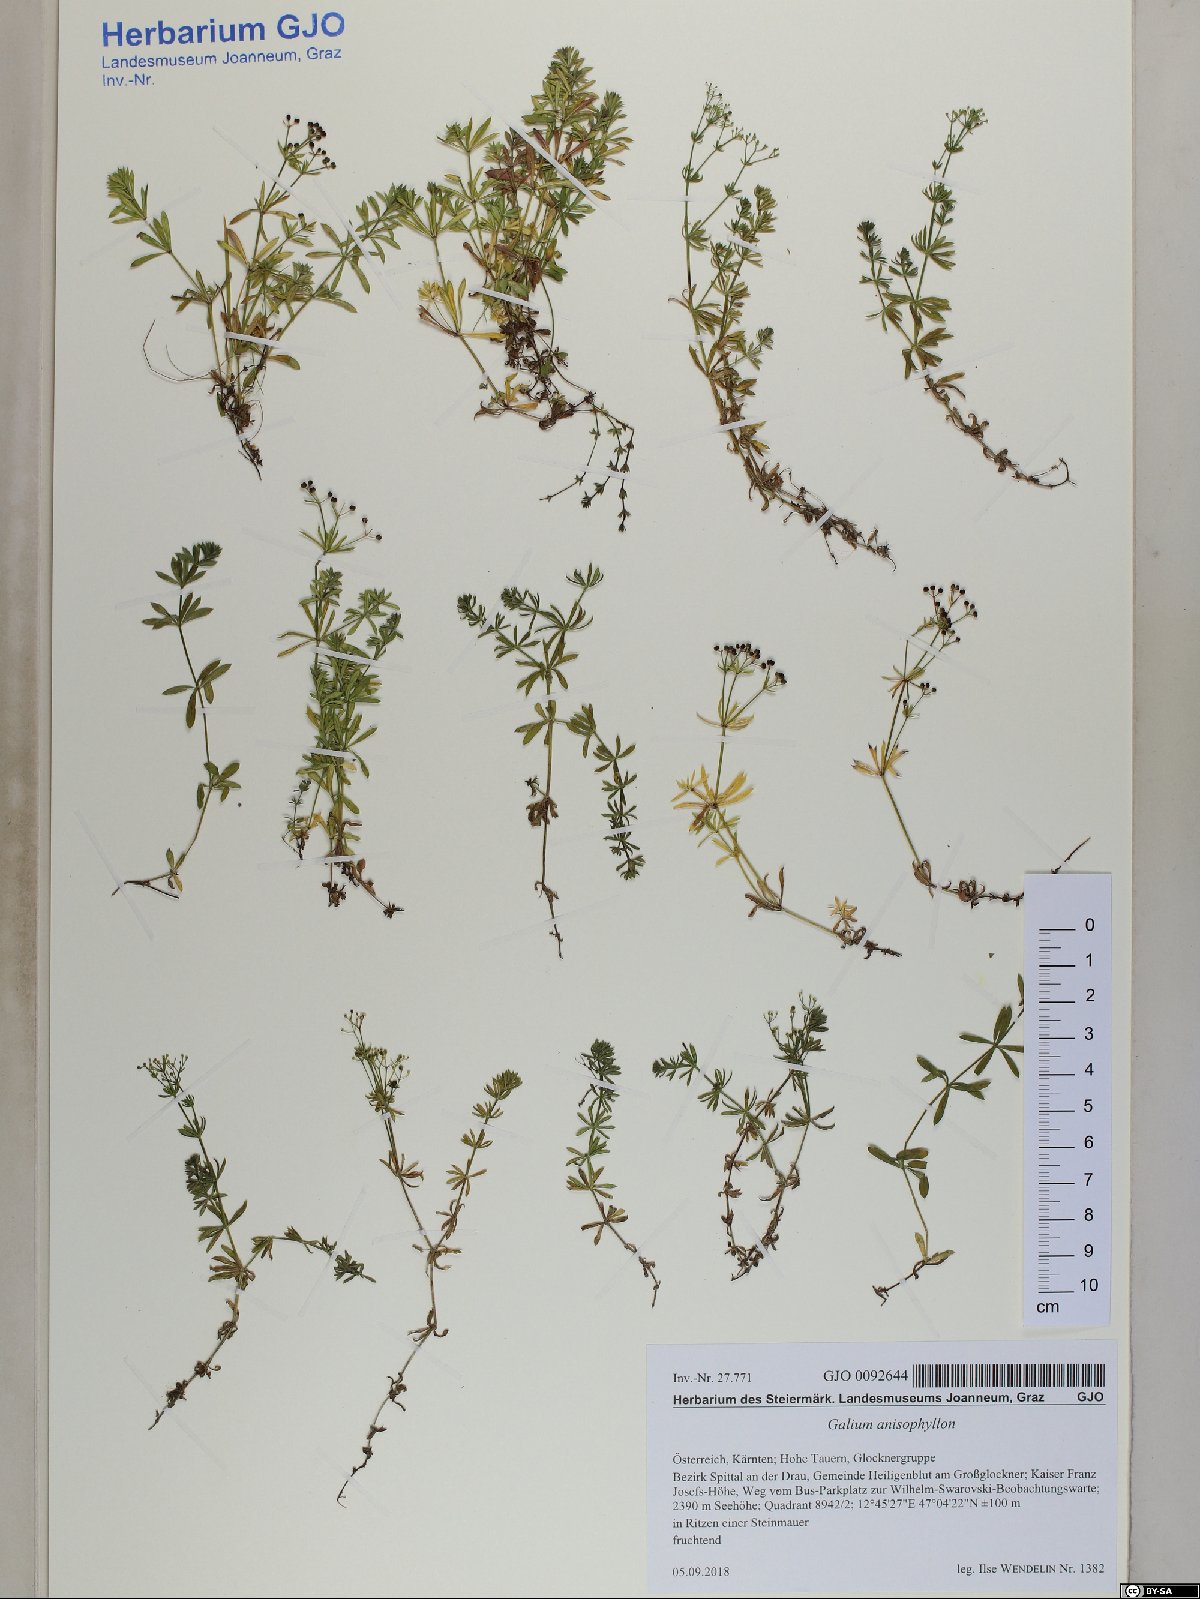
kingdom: Plantae
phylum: Tracheophyta
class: Magnoliopsida
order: Gentianales
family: Rubiaceae
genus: Galium
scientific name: Galium anisophyllon
